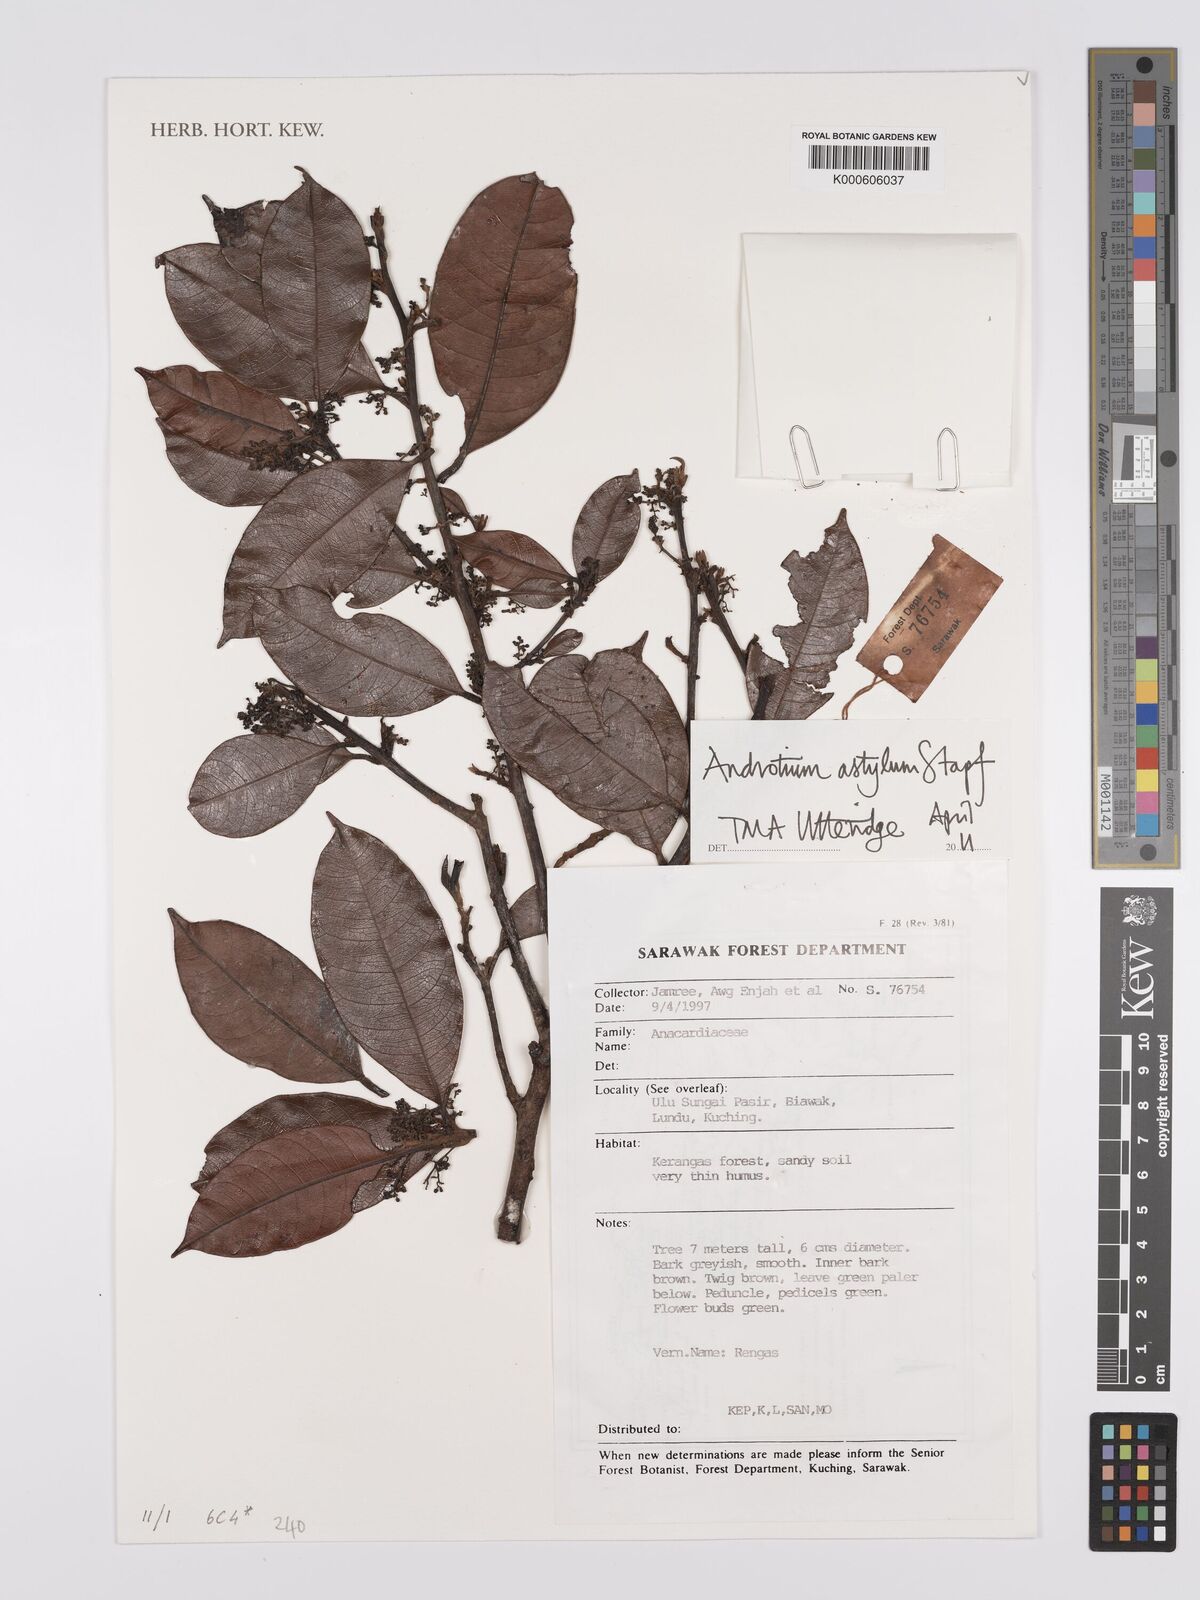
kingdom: Plantae
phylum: Tracheophyta
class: Magnoliopsida
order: Sapindales
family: Anacardiaceae
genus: Androtium
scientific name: Androtium astylum
